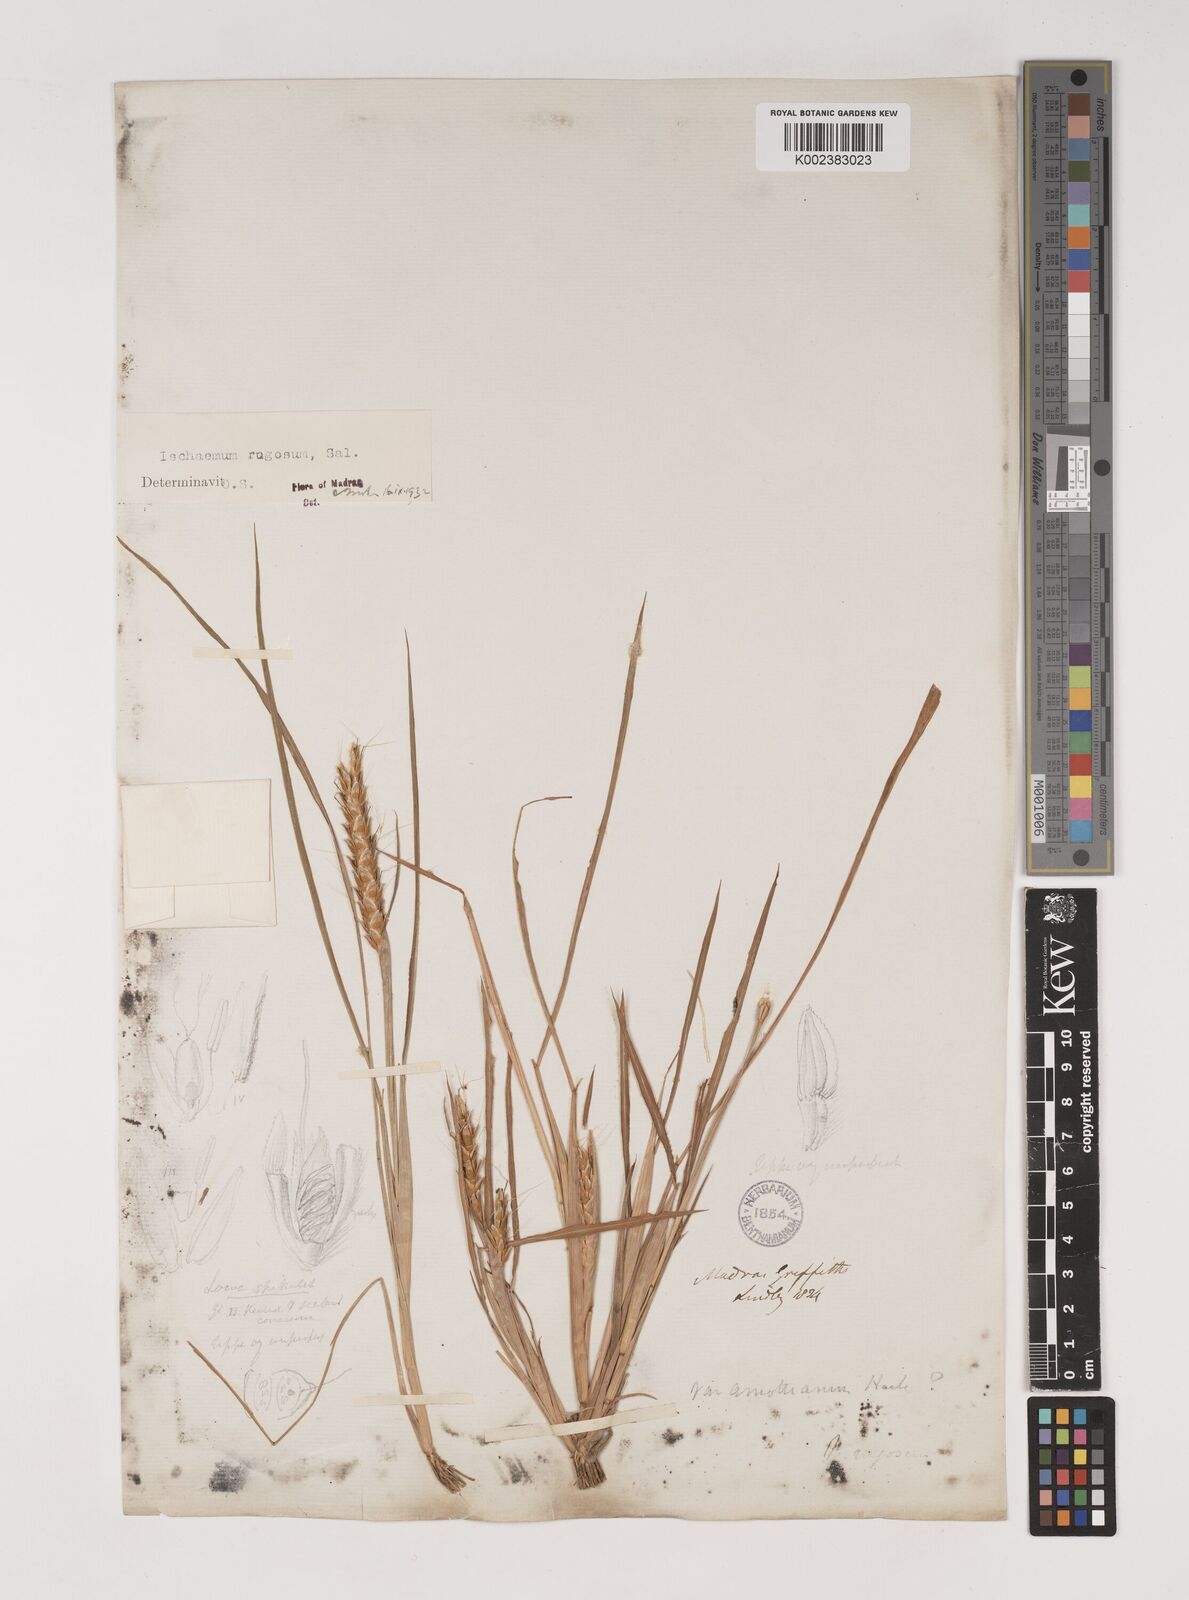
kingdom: Plantae
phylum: Tracheophyta
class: Liliopsida
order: Poales
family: Poaceae
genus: Ischaemum
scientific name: Ischaemum rugosum
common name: Saramatta grass
